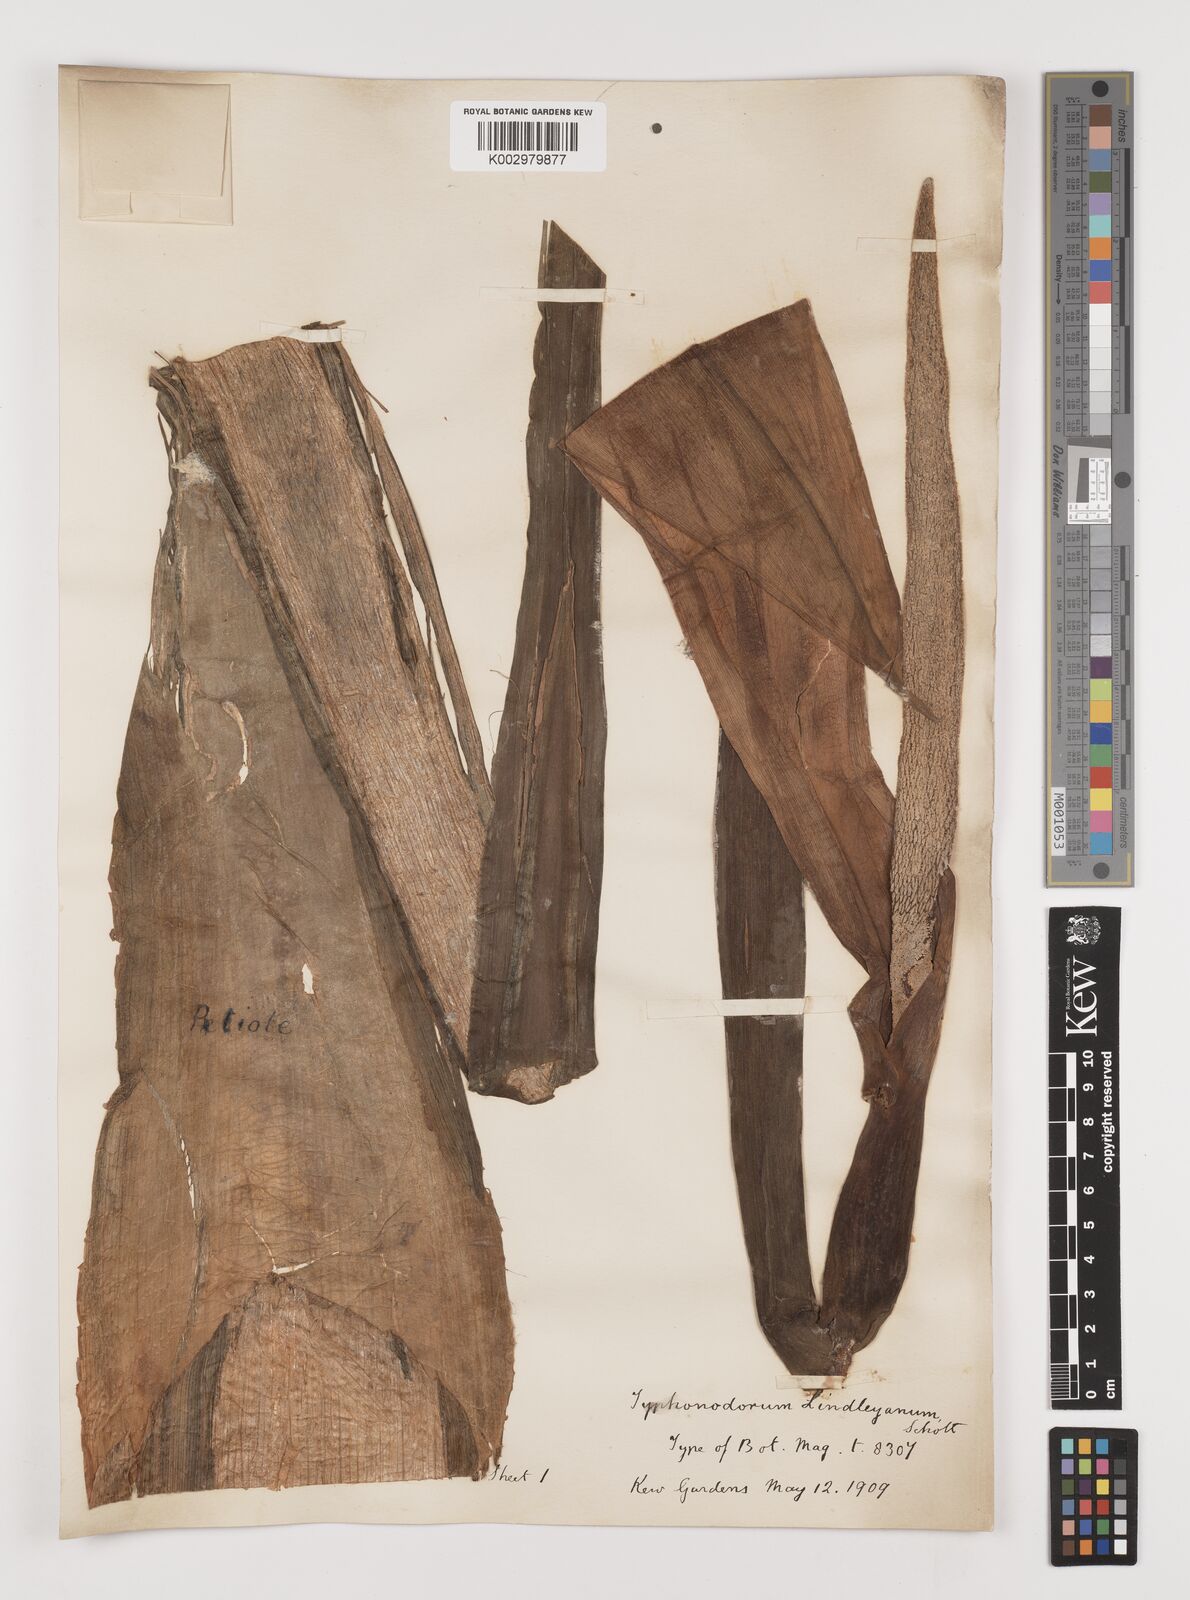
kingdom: Plantae
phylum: Tracheophyta
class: Liliopsida
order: Alismatales
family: Araceae
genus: Typhonodorum
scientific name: Typhonodorum lindleyanum
